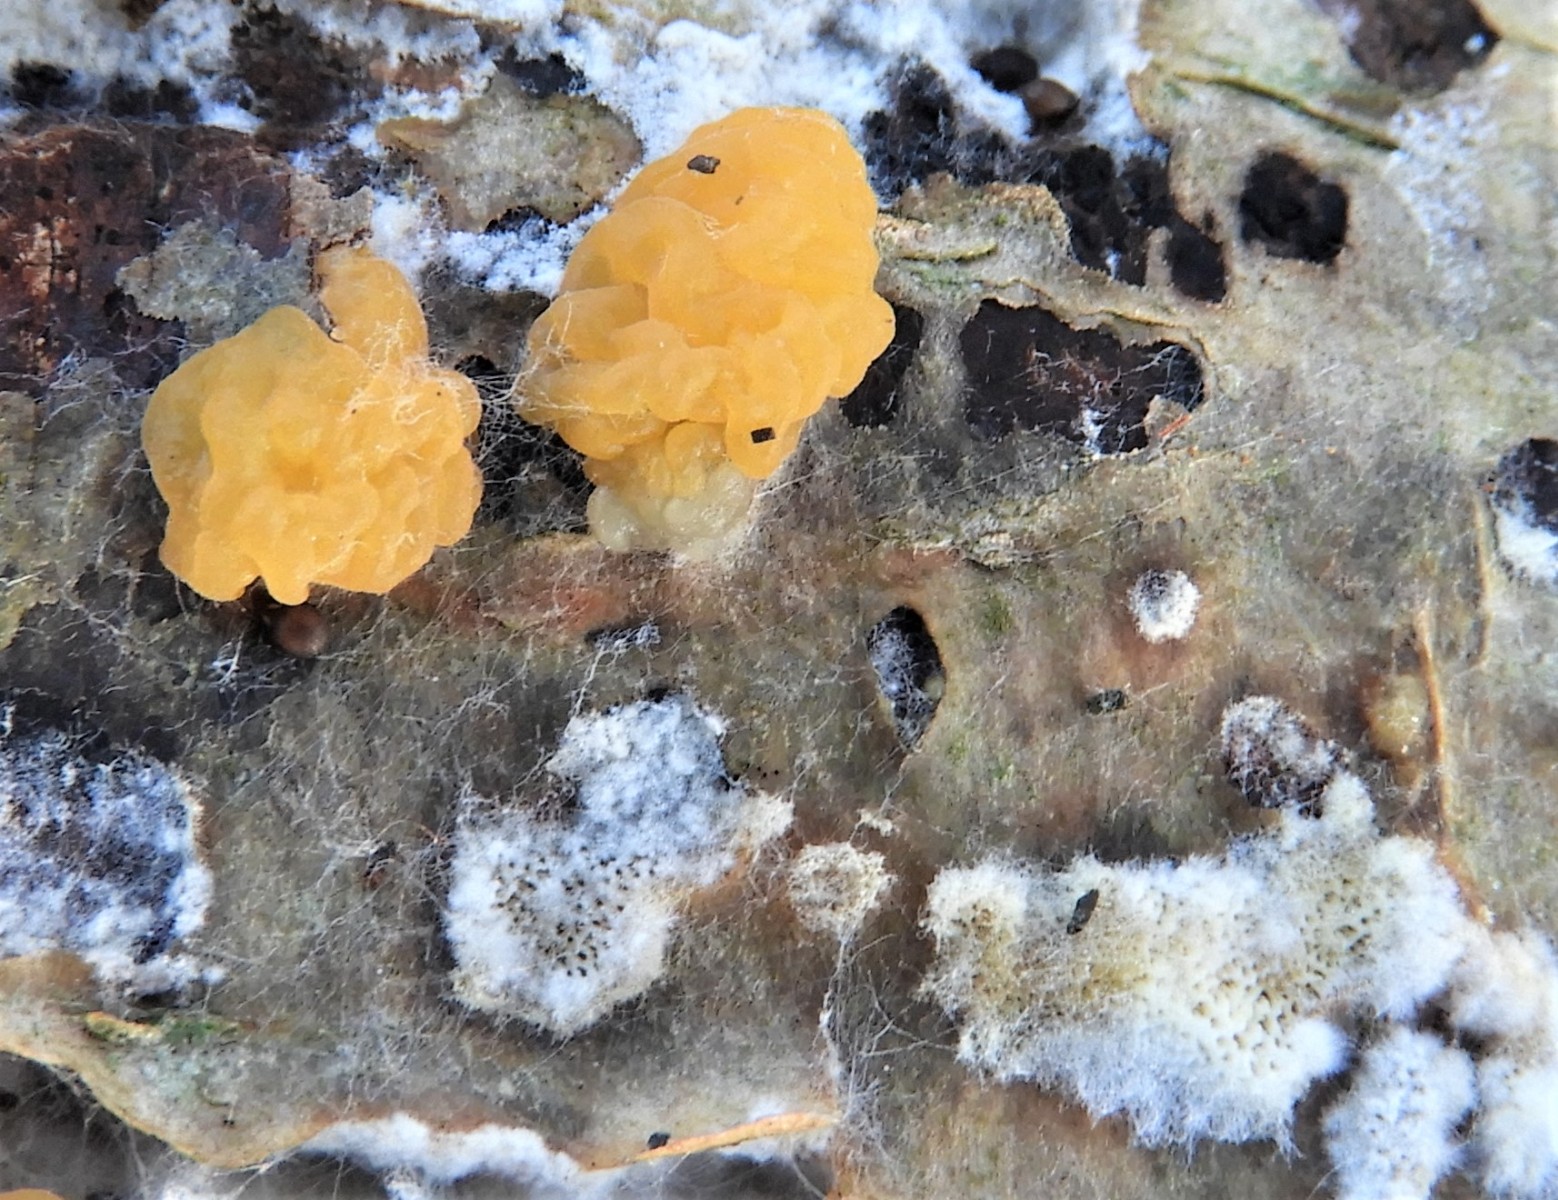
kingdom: Fungi
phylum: Basidiomycota
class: Dacrymycetes
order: Dacrymycetales
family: Dacrymycetaceae
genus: Dacrymyces
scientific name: Dacrymyces lacrymalis
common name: rynket tåresvamp
